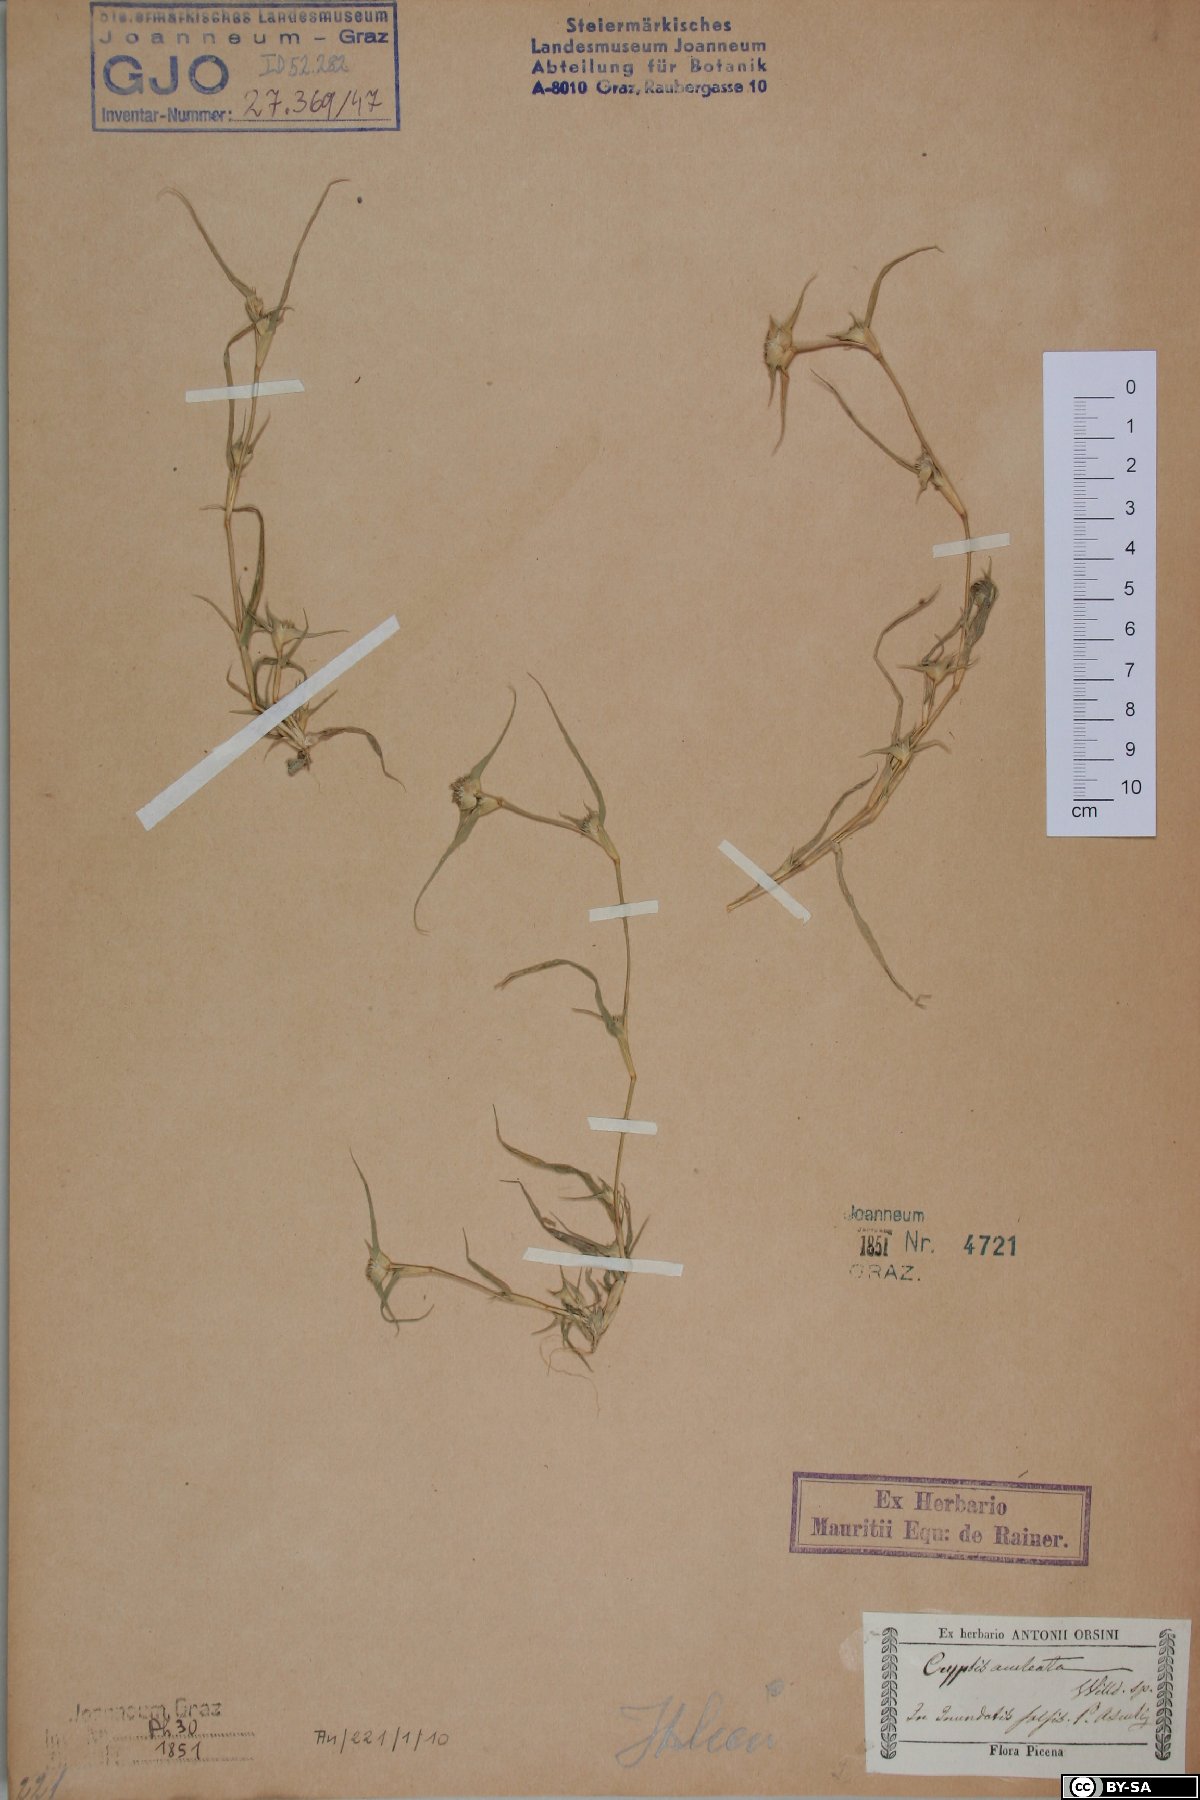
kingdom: Plantae
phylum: Tracheophyta
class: Liliopsida
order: Poales
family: Poaceae
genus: Sporobolus
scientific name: Sporobolus aculeatus
